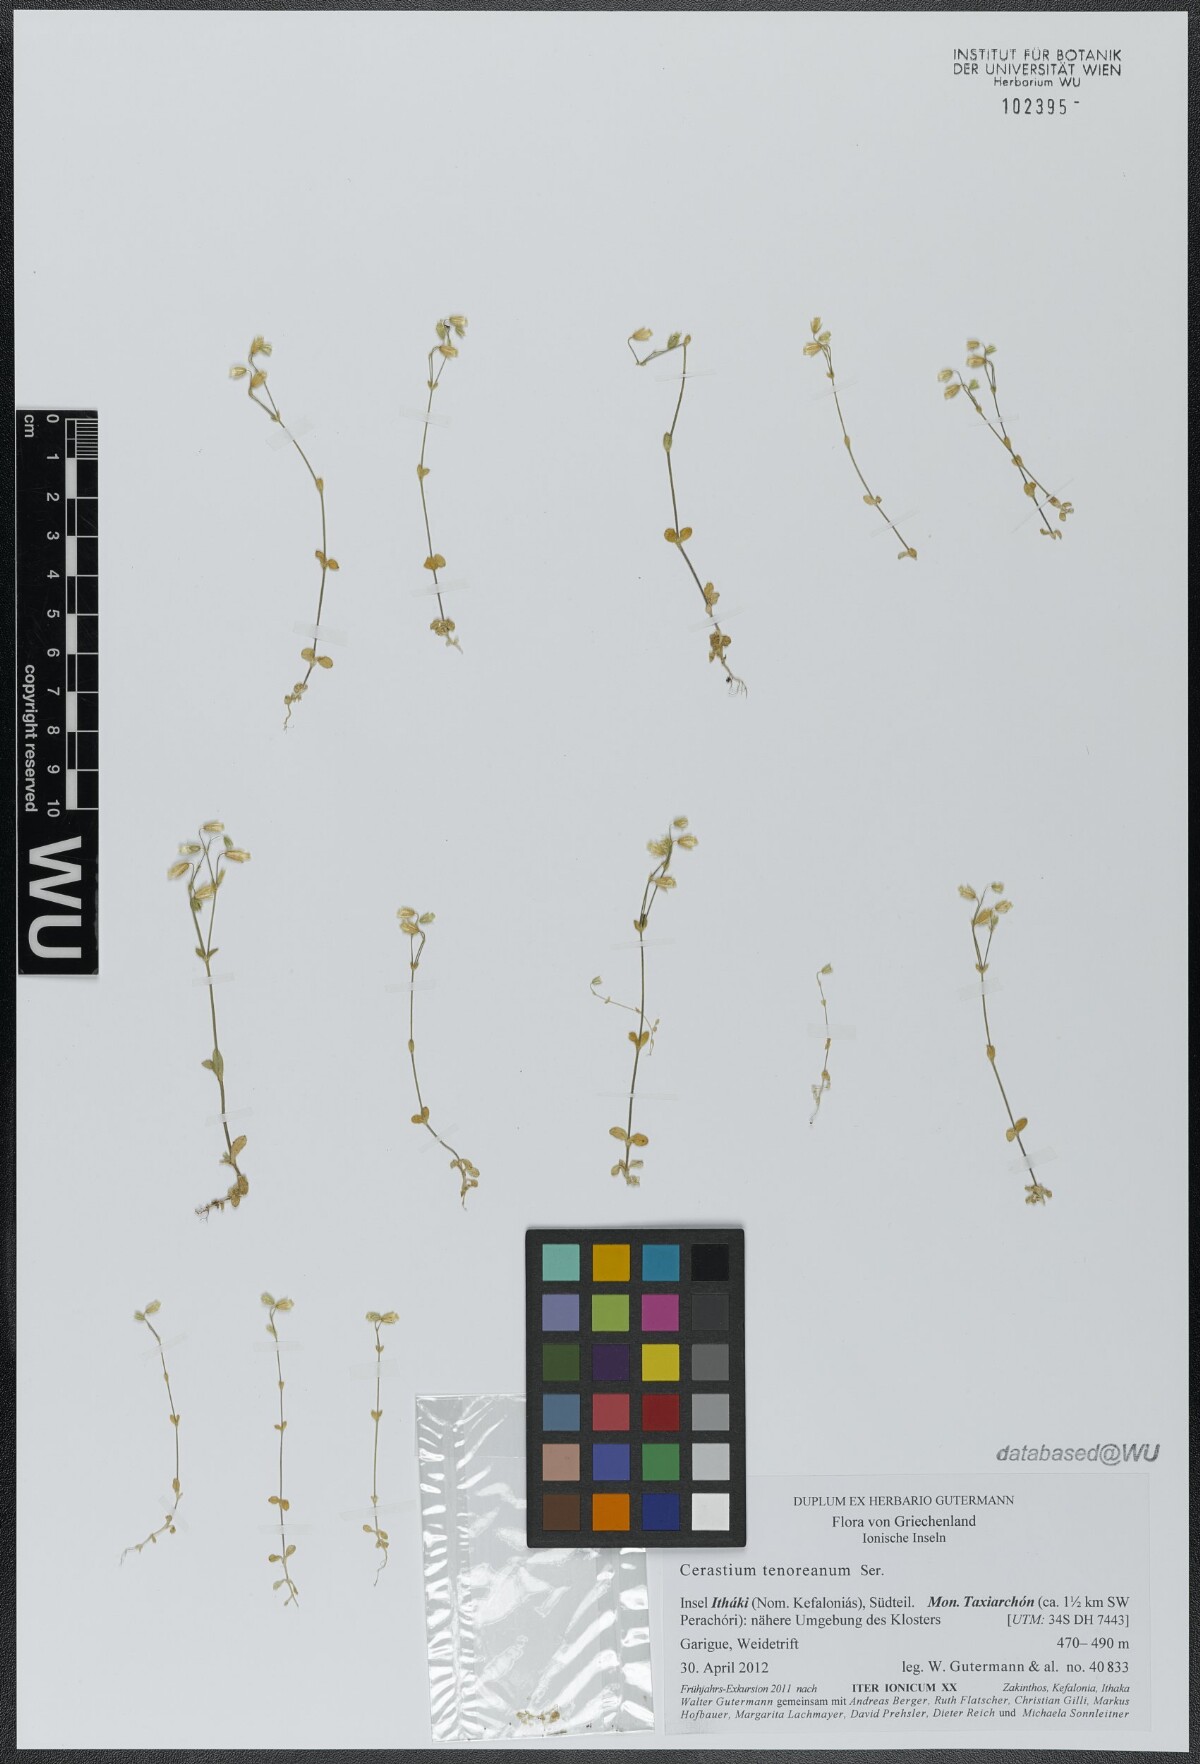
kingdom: Plantae
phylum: Tracheophyta
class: Magnoliopsida
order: Caryophyllales
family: Caryophyllaceae
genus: Cerastium
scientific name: Cerastium tenoreanum
